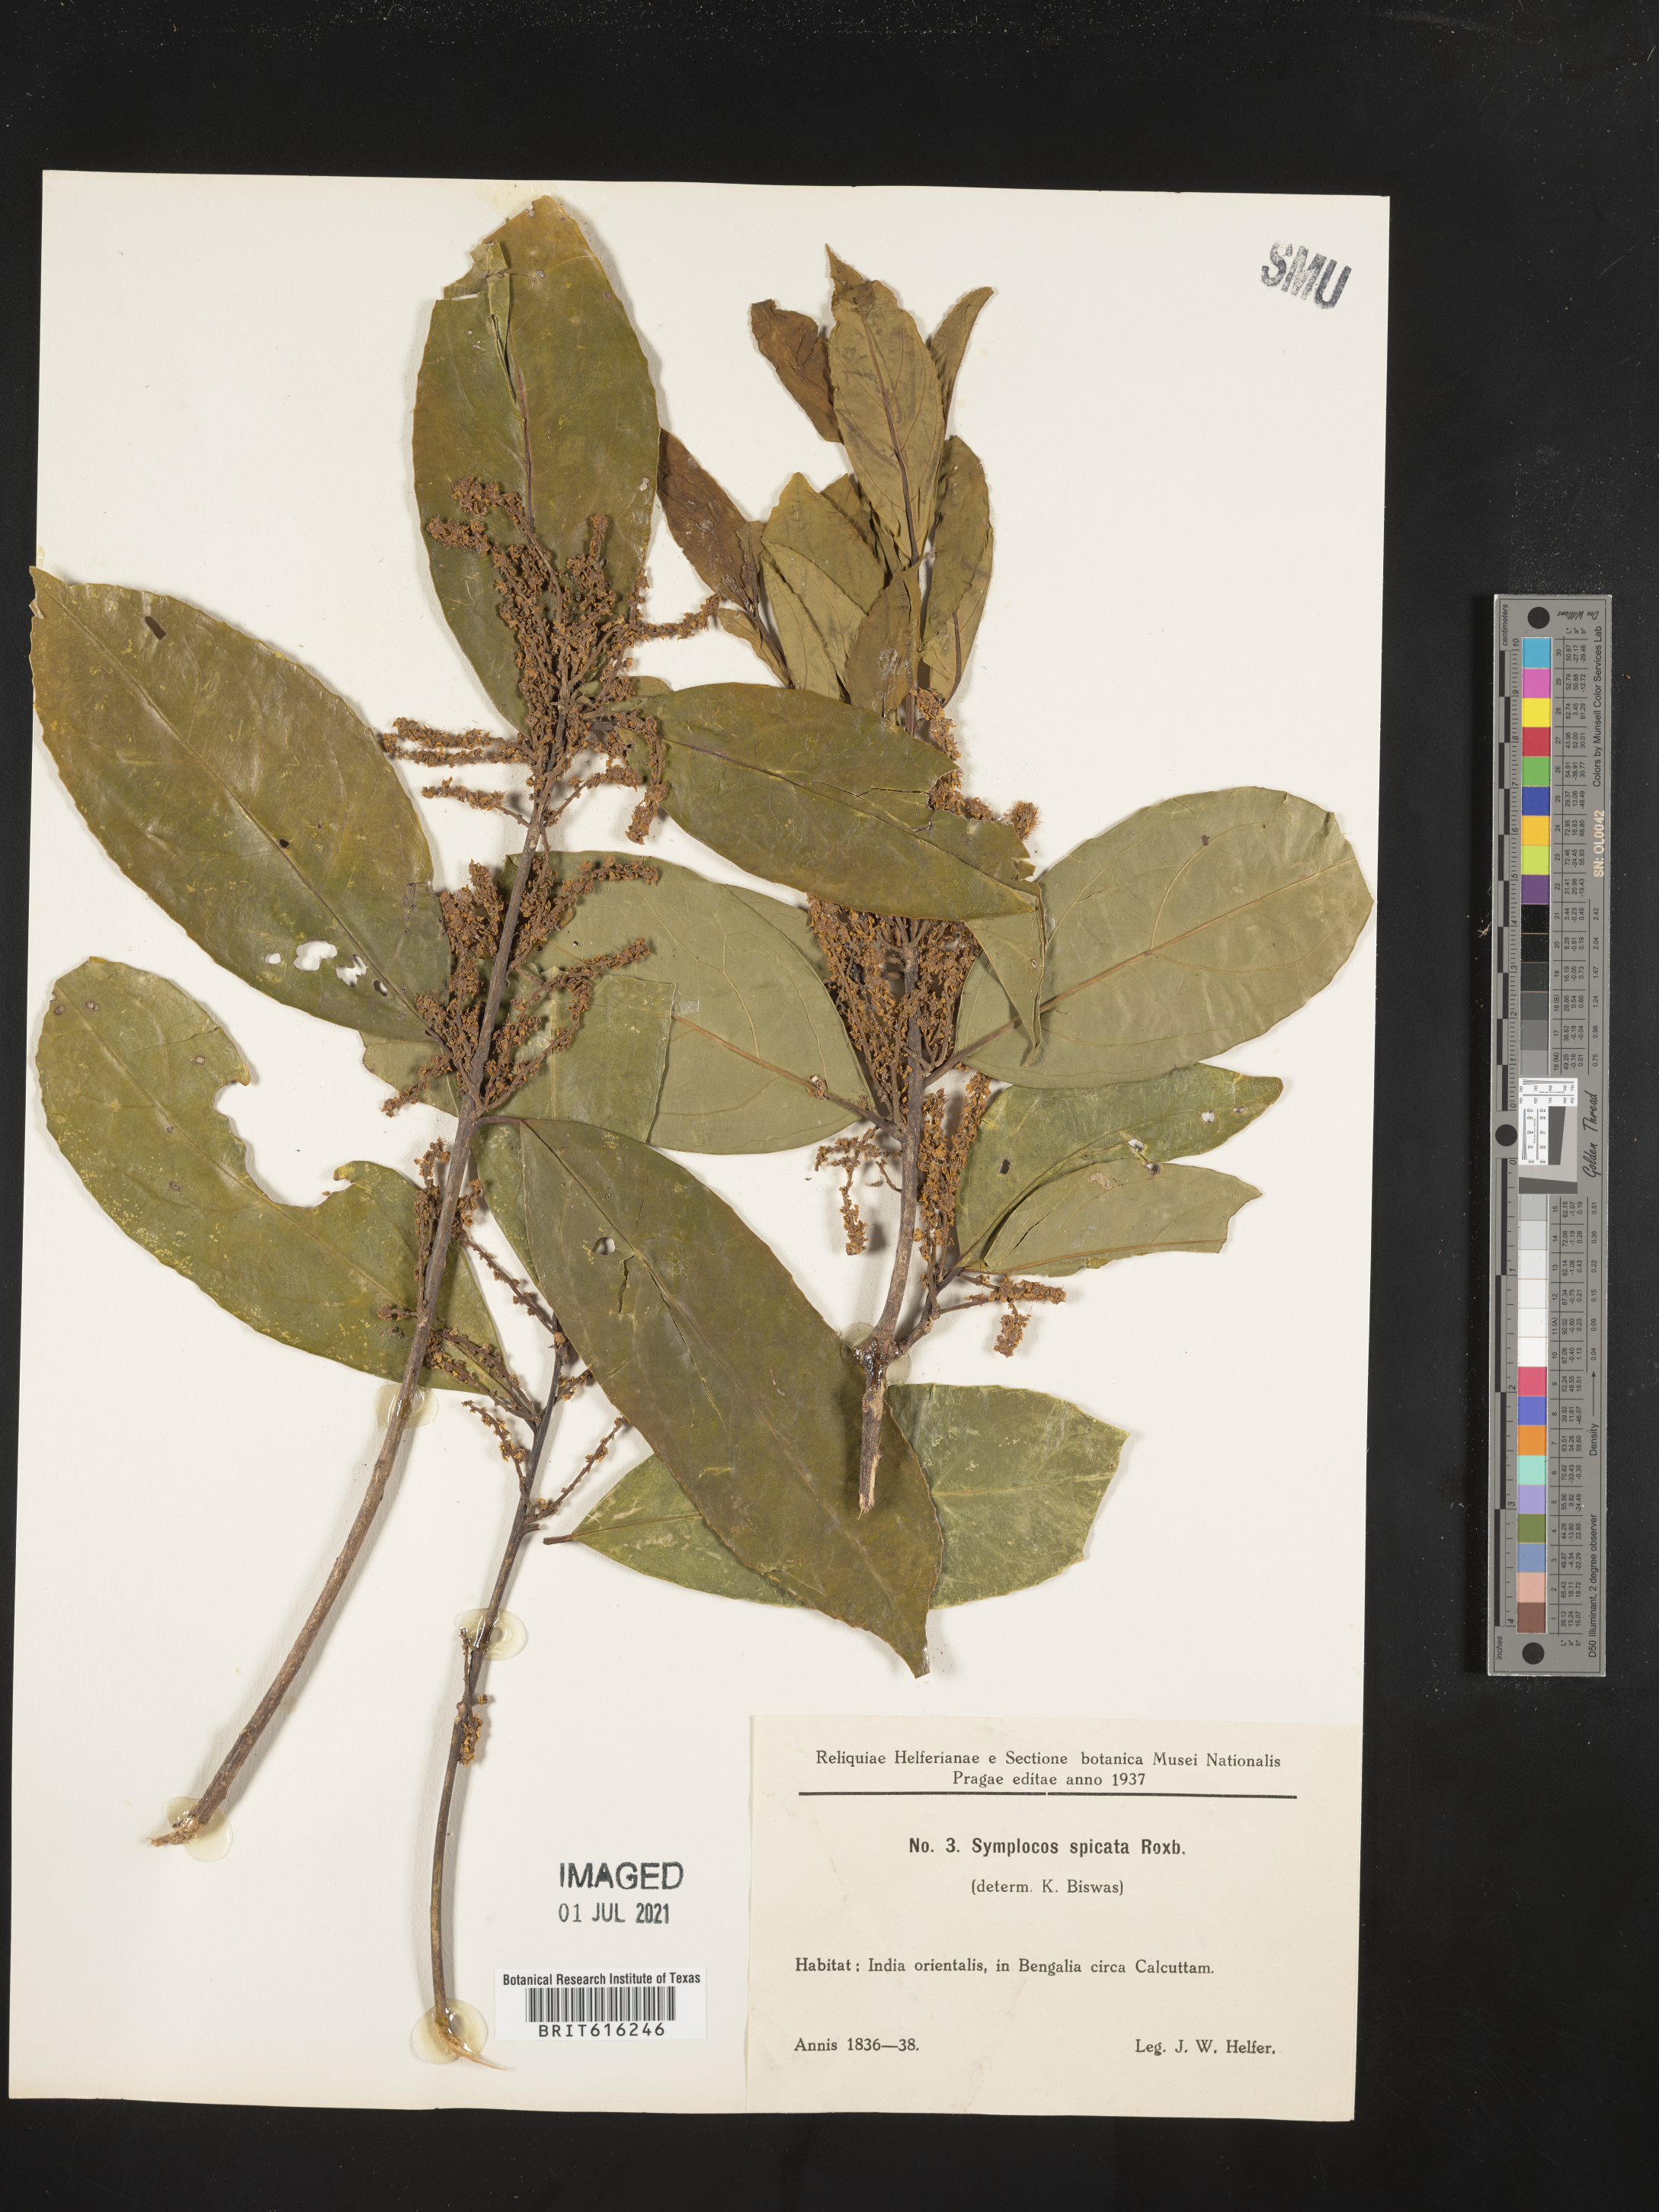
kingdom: Plantae
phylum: Tracheophyta
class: Magnoliopsida
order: Ericales
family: Symplocaceae
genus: Symplocos
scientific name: Symplocos acuminata
